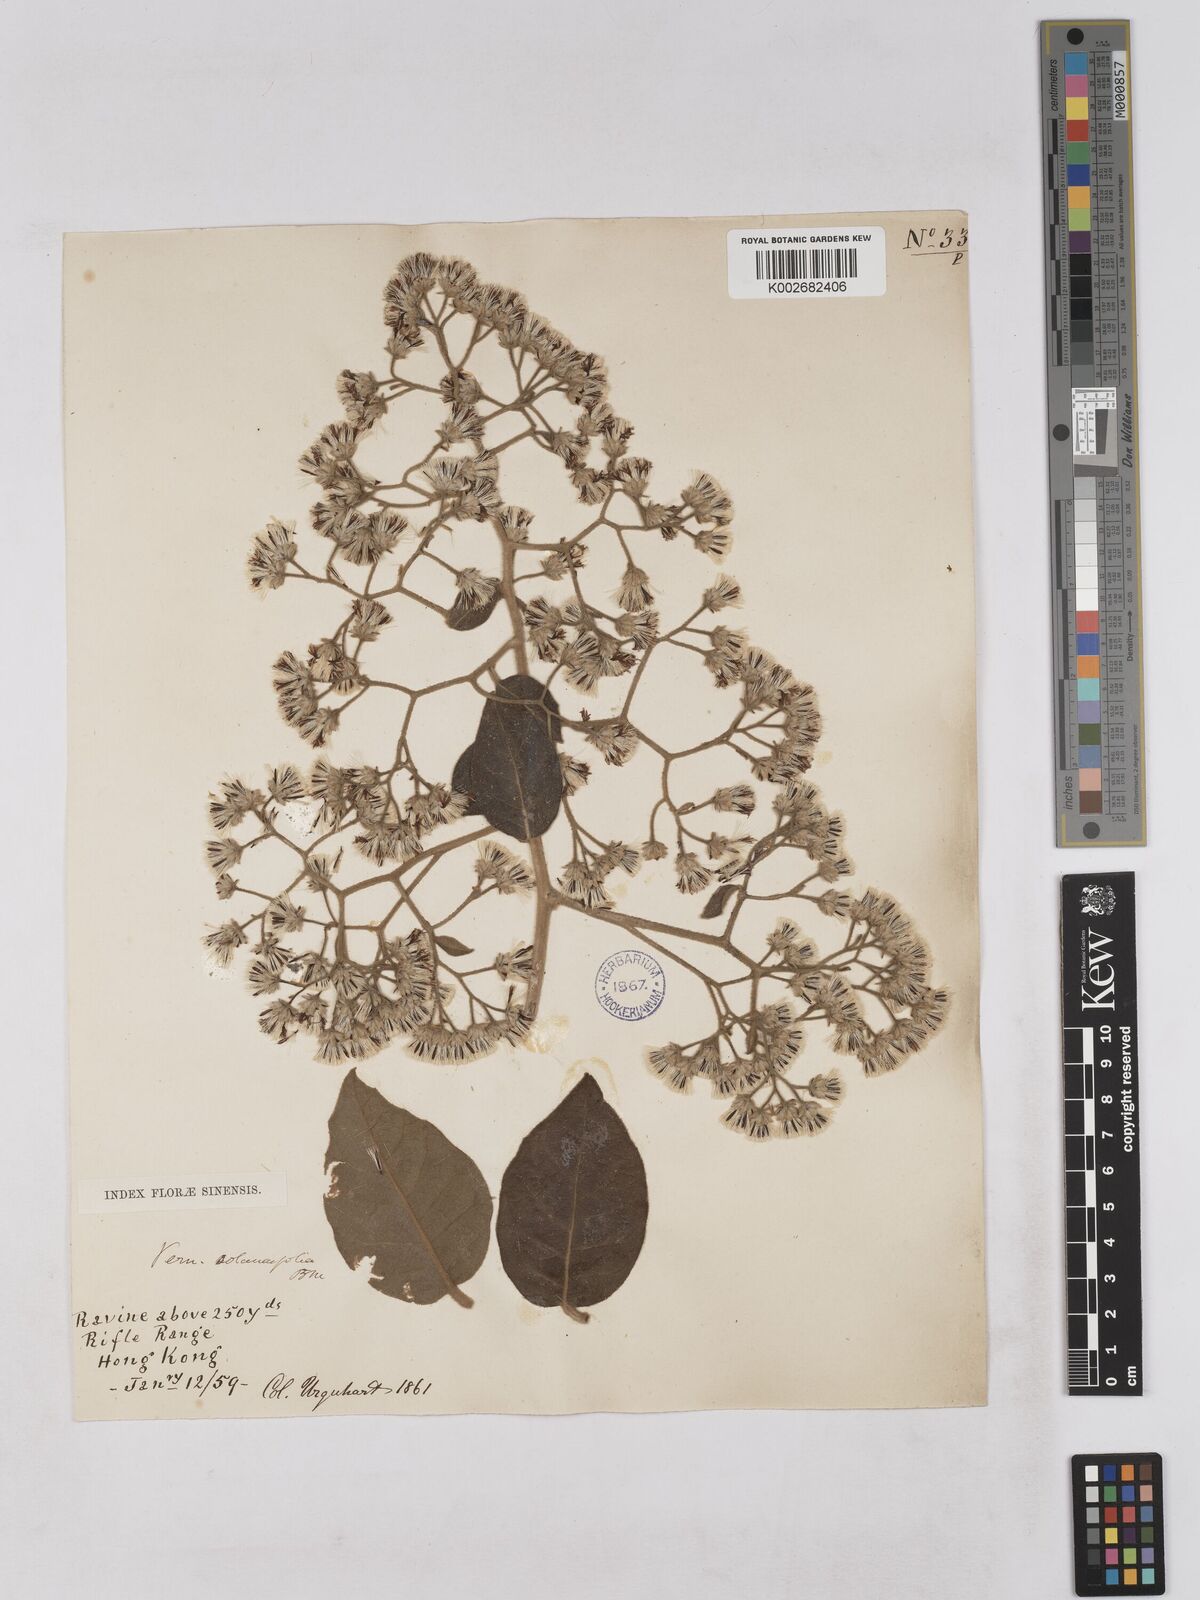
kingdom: Plantae
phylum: Tracheophyta
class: Magnoliopsida
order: Asterales
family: Asteraceae
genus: Strobocalyx
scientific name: Strobocalyx solanifolia
